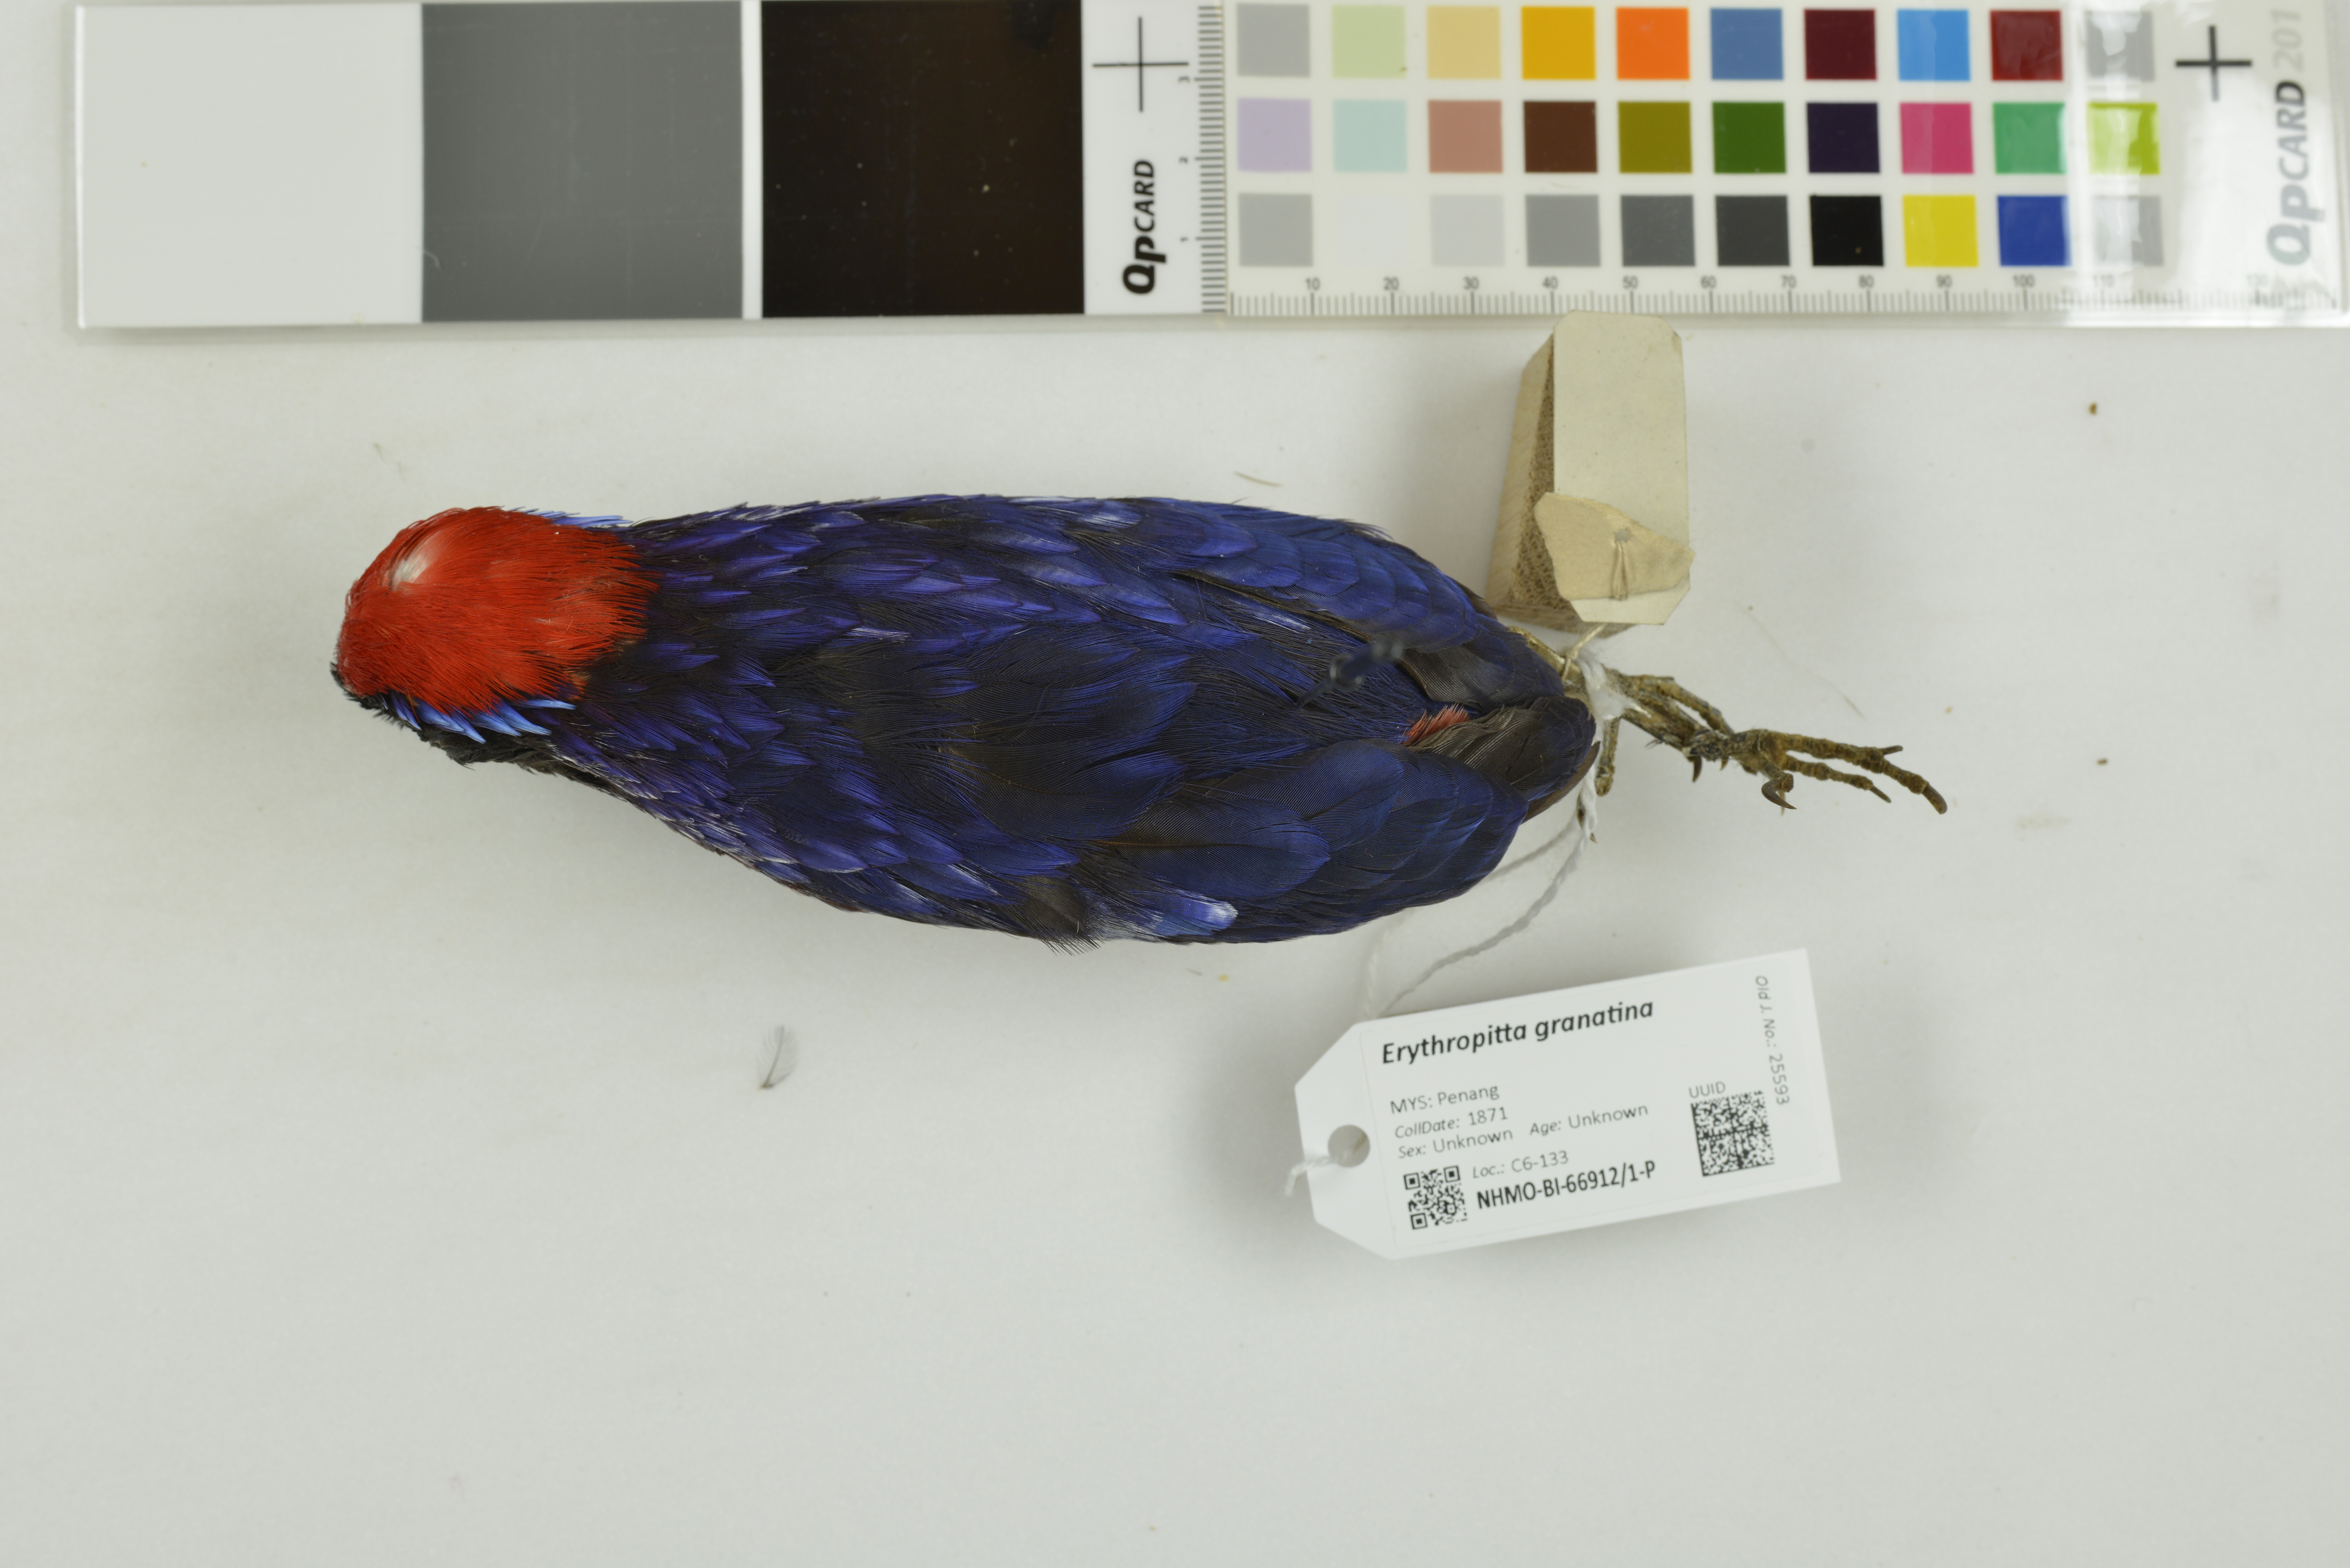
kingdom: Animalia
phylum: Chordata
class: Aves
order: Passeriformes
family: Pittidae
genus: Pitta
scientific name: Pitta granatina
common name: Garnet pitta
